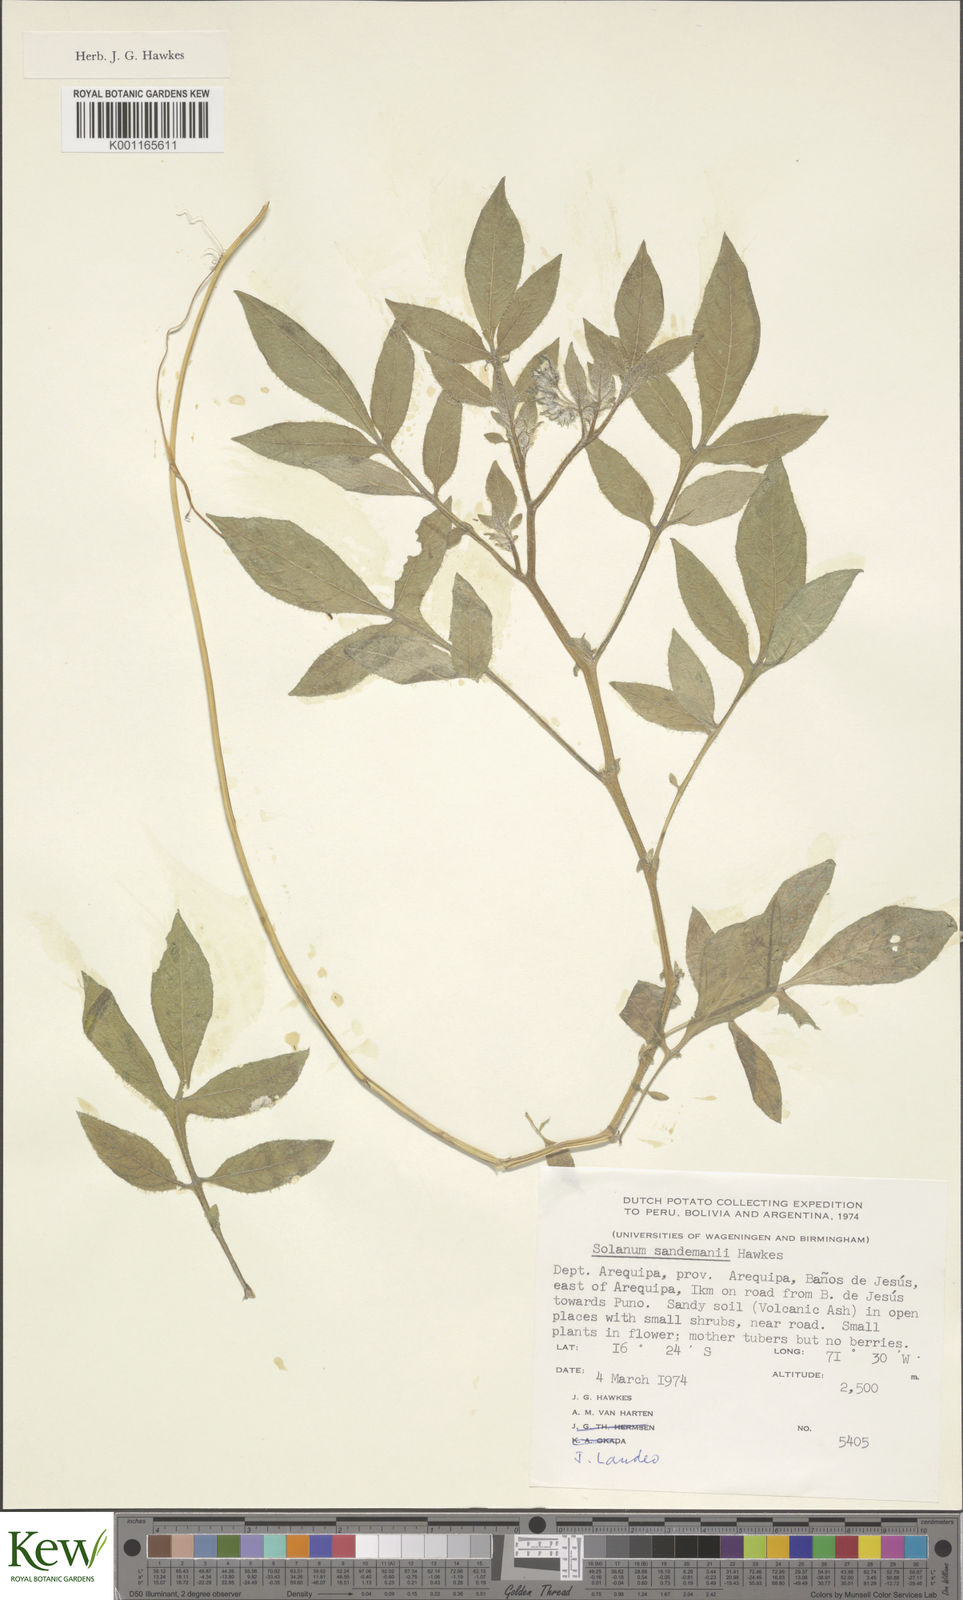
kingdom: Plantae
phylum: Tracheophyta
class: Magnoliopsida
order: Solanales
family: Solanaceae
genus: Solanum
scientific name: Solanum medians
